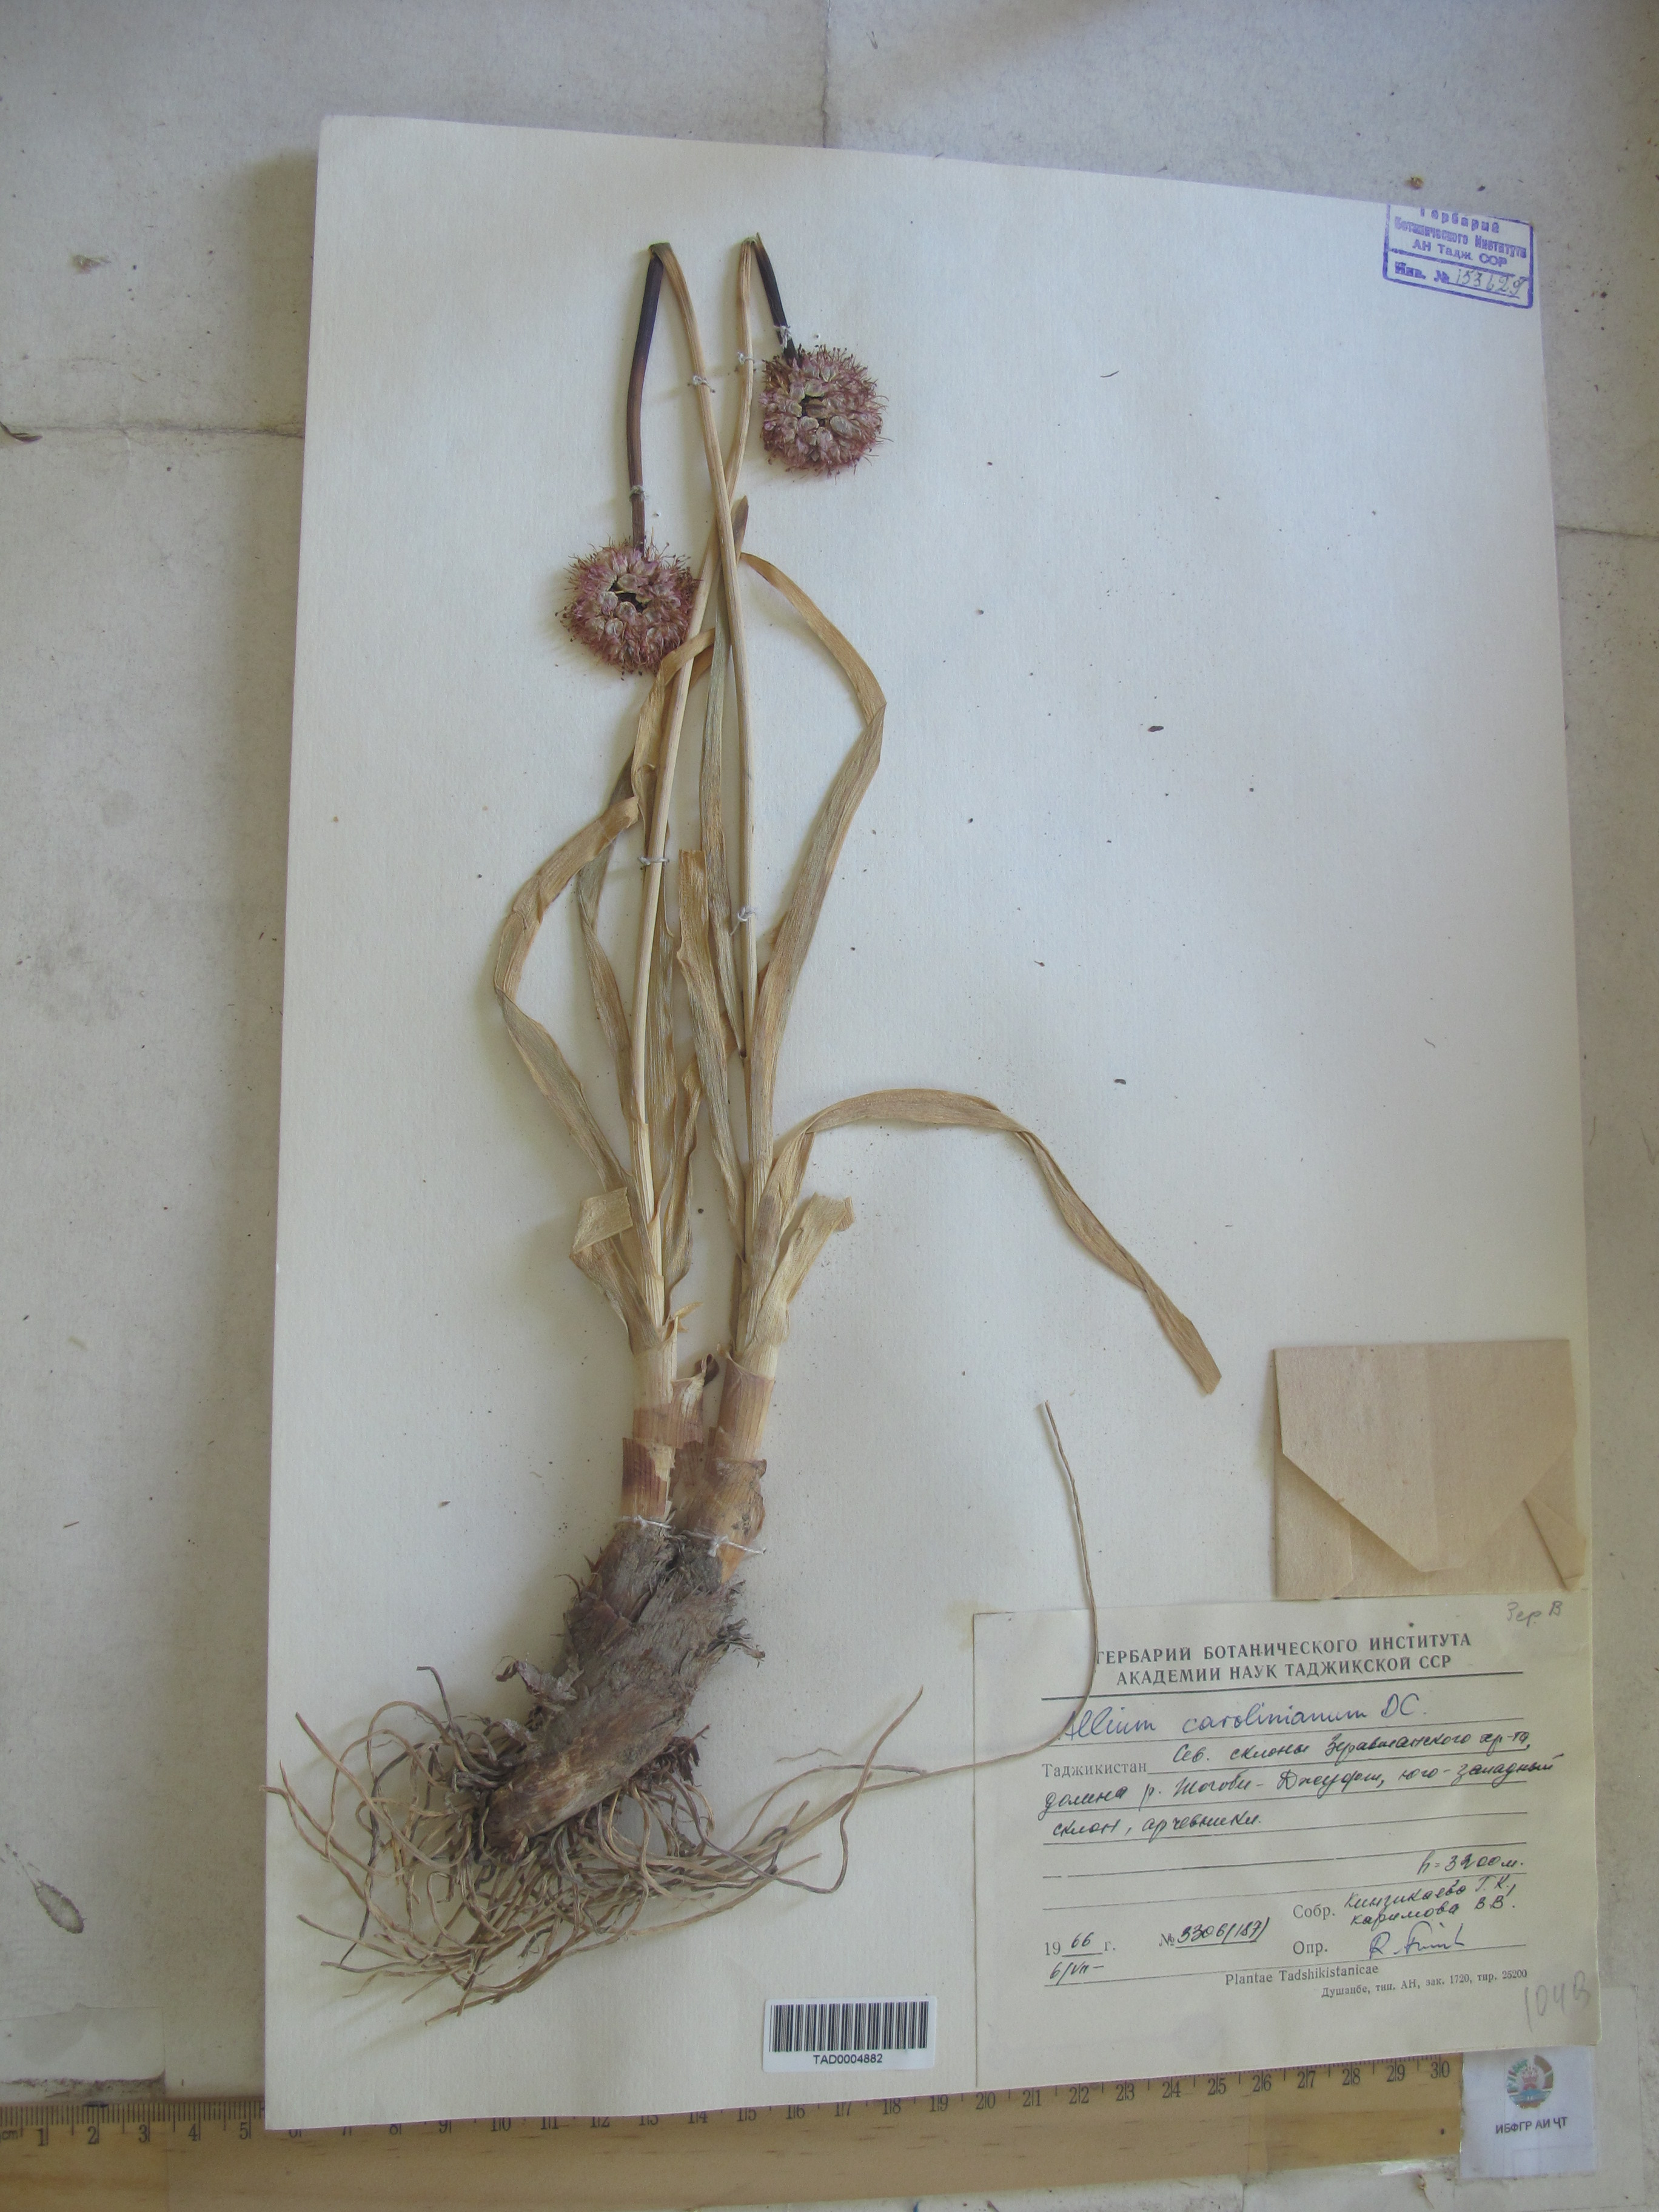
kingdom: Plantae
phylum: Tracheophyta
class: Liliopsida
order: Asparagales
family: Amaryllidaceae
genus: Allium
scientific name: Allium carolinianum
